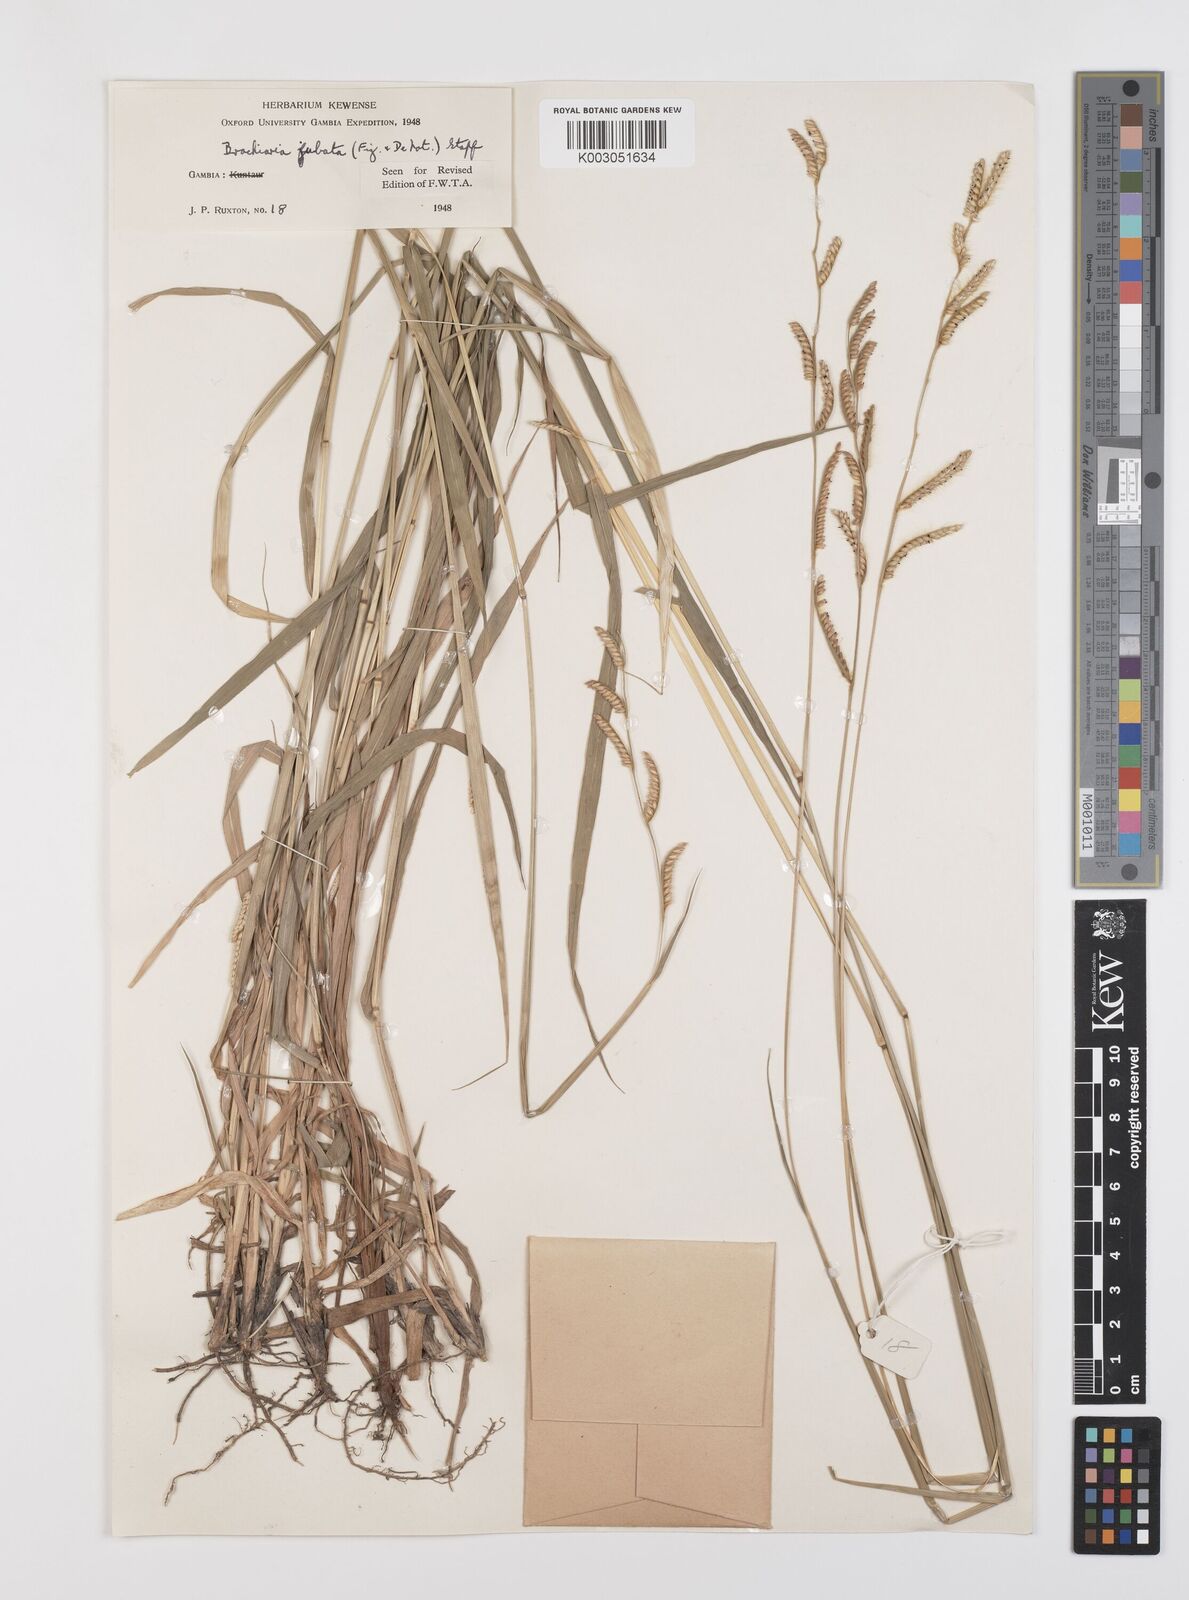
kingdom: Plantae
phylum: Tracheophyta
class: Liliopsida
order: Poales
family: Poaceae
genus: Urochloa
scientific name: Urochloa jubata
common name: Buffalograss
